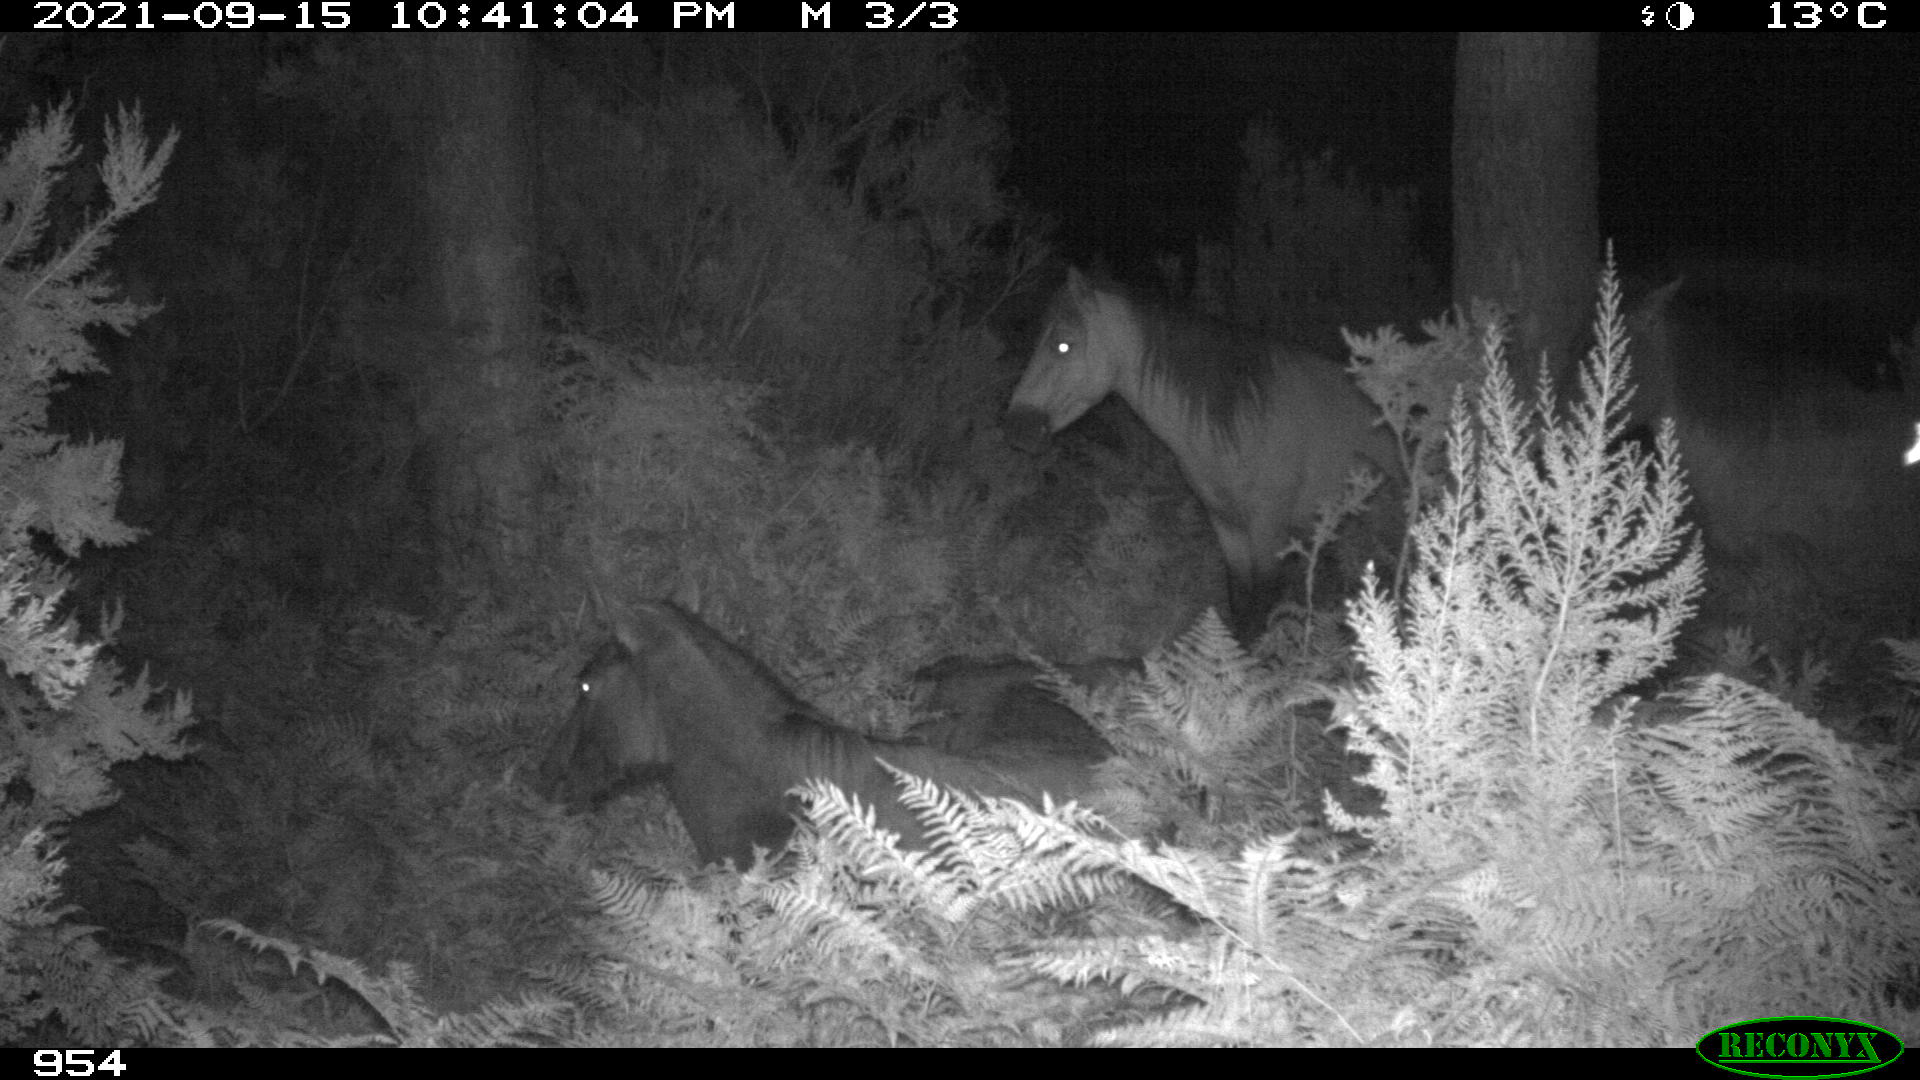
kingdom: Animalia
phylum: Chordata
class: Mammalia
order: Perissodactyla
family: Equidae
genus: Equus
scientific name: Equus caballus
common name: Horse
